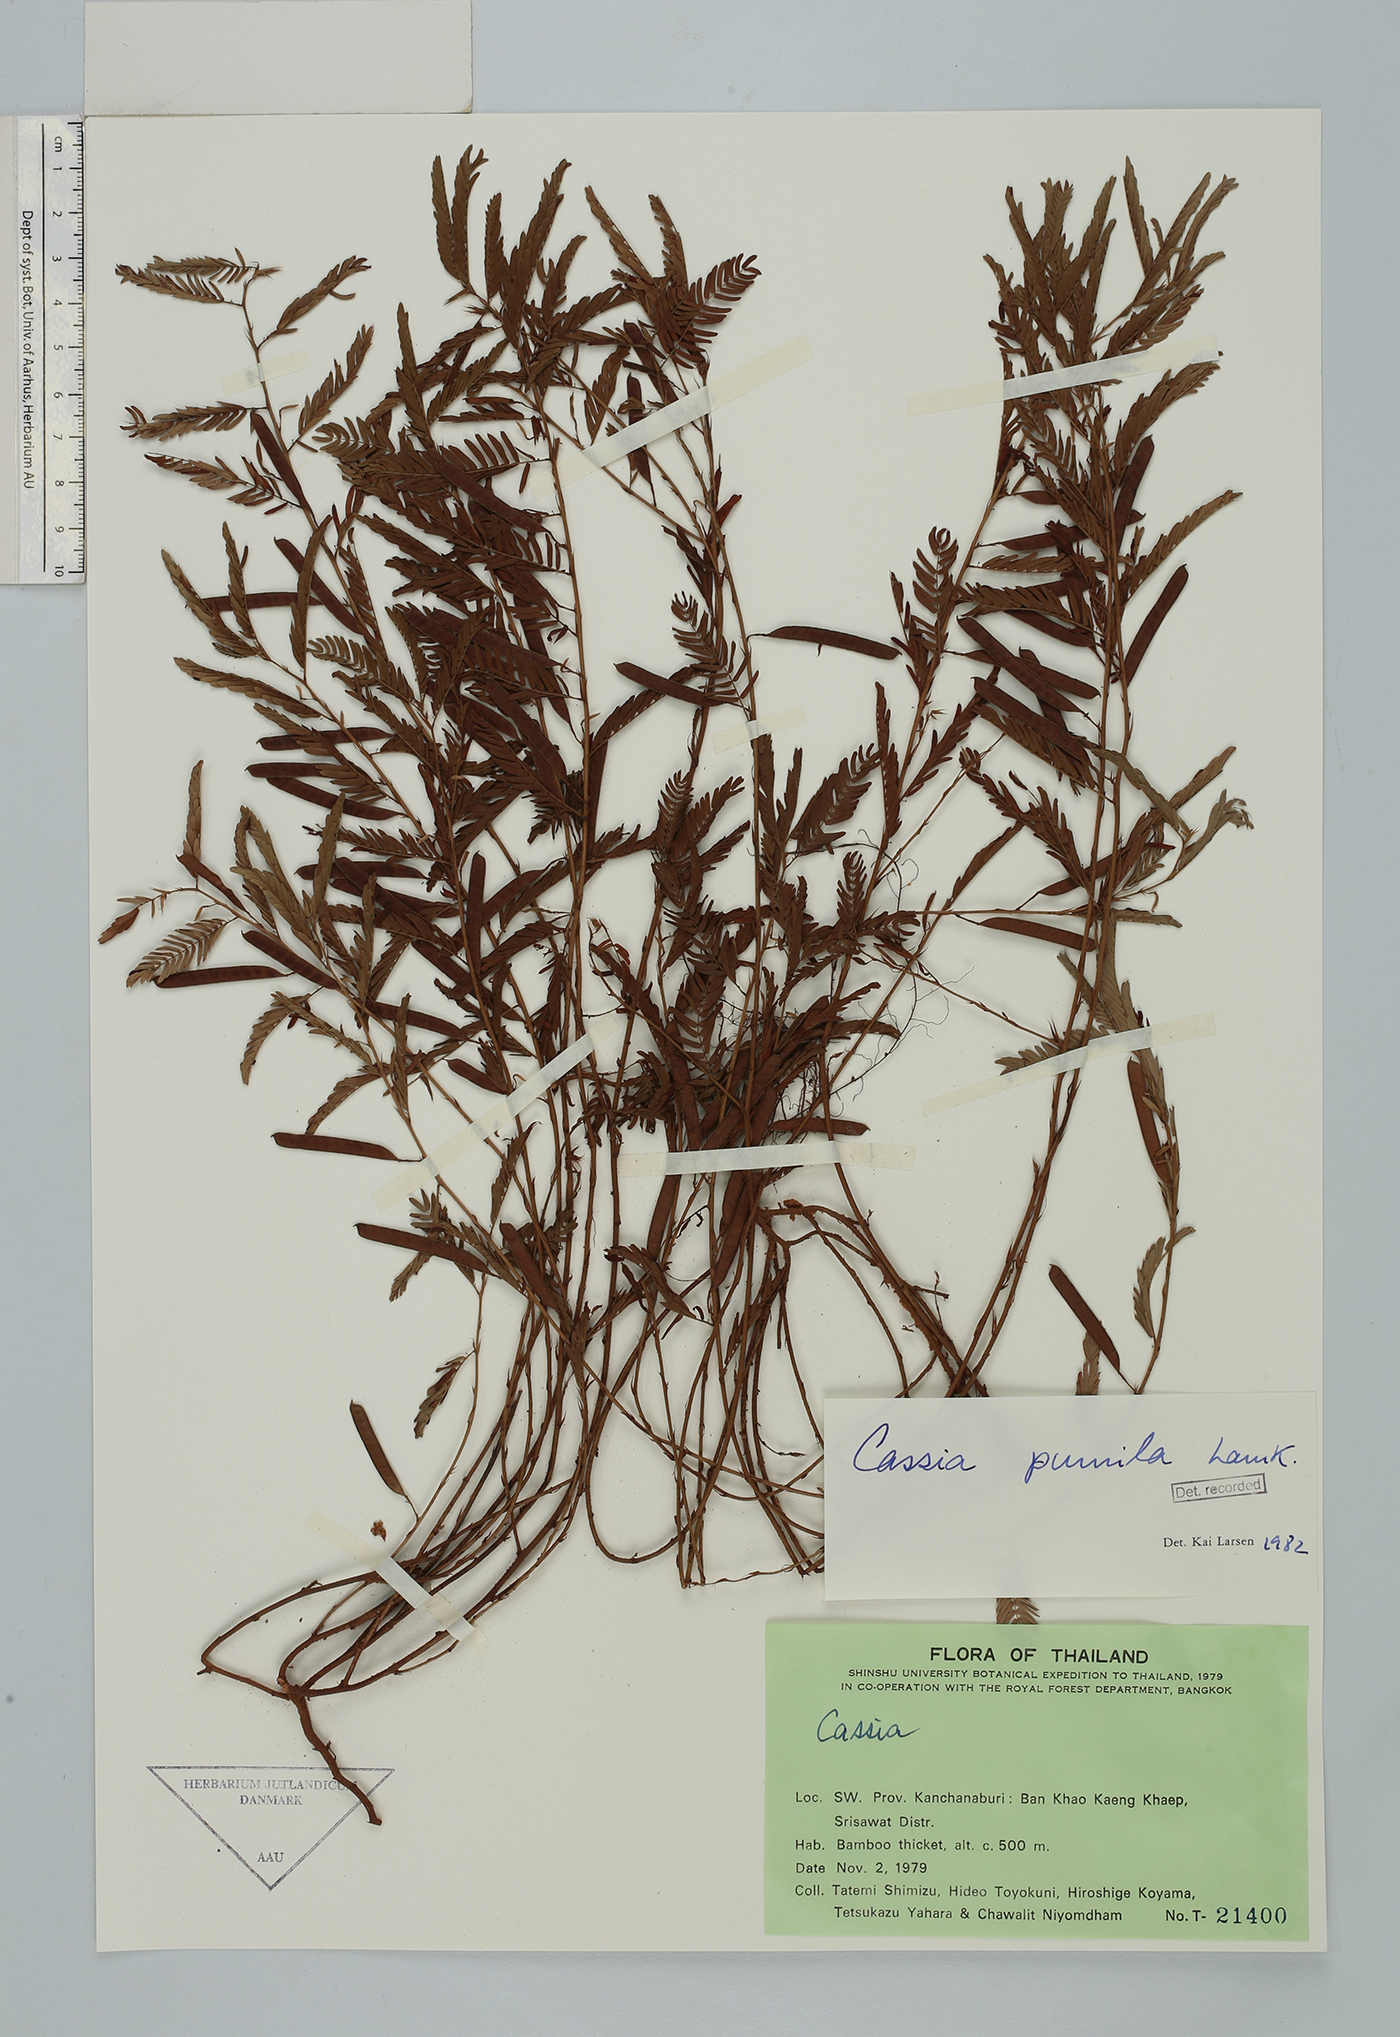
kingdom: Plantae
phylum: Tracheophyta
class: Magnoliopsida
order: Fabales
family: Fabaceae
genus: Chamaecrista
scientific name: Chamaecrista pumila
